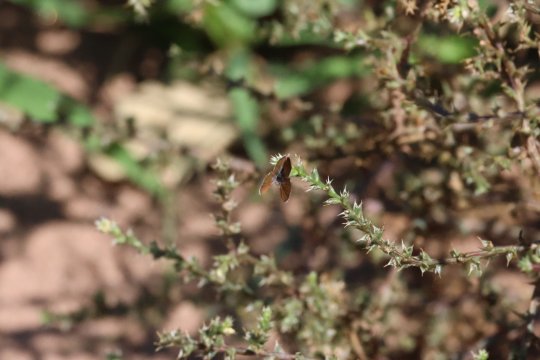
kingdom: Animalia
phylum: Arthropoda
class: Insecta
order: Lepidoptera
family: Lycaenidae
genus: Brephidium
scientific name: Brephidium exilis
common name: Western Pygmy-Blue
